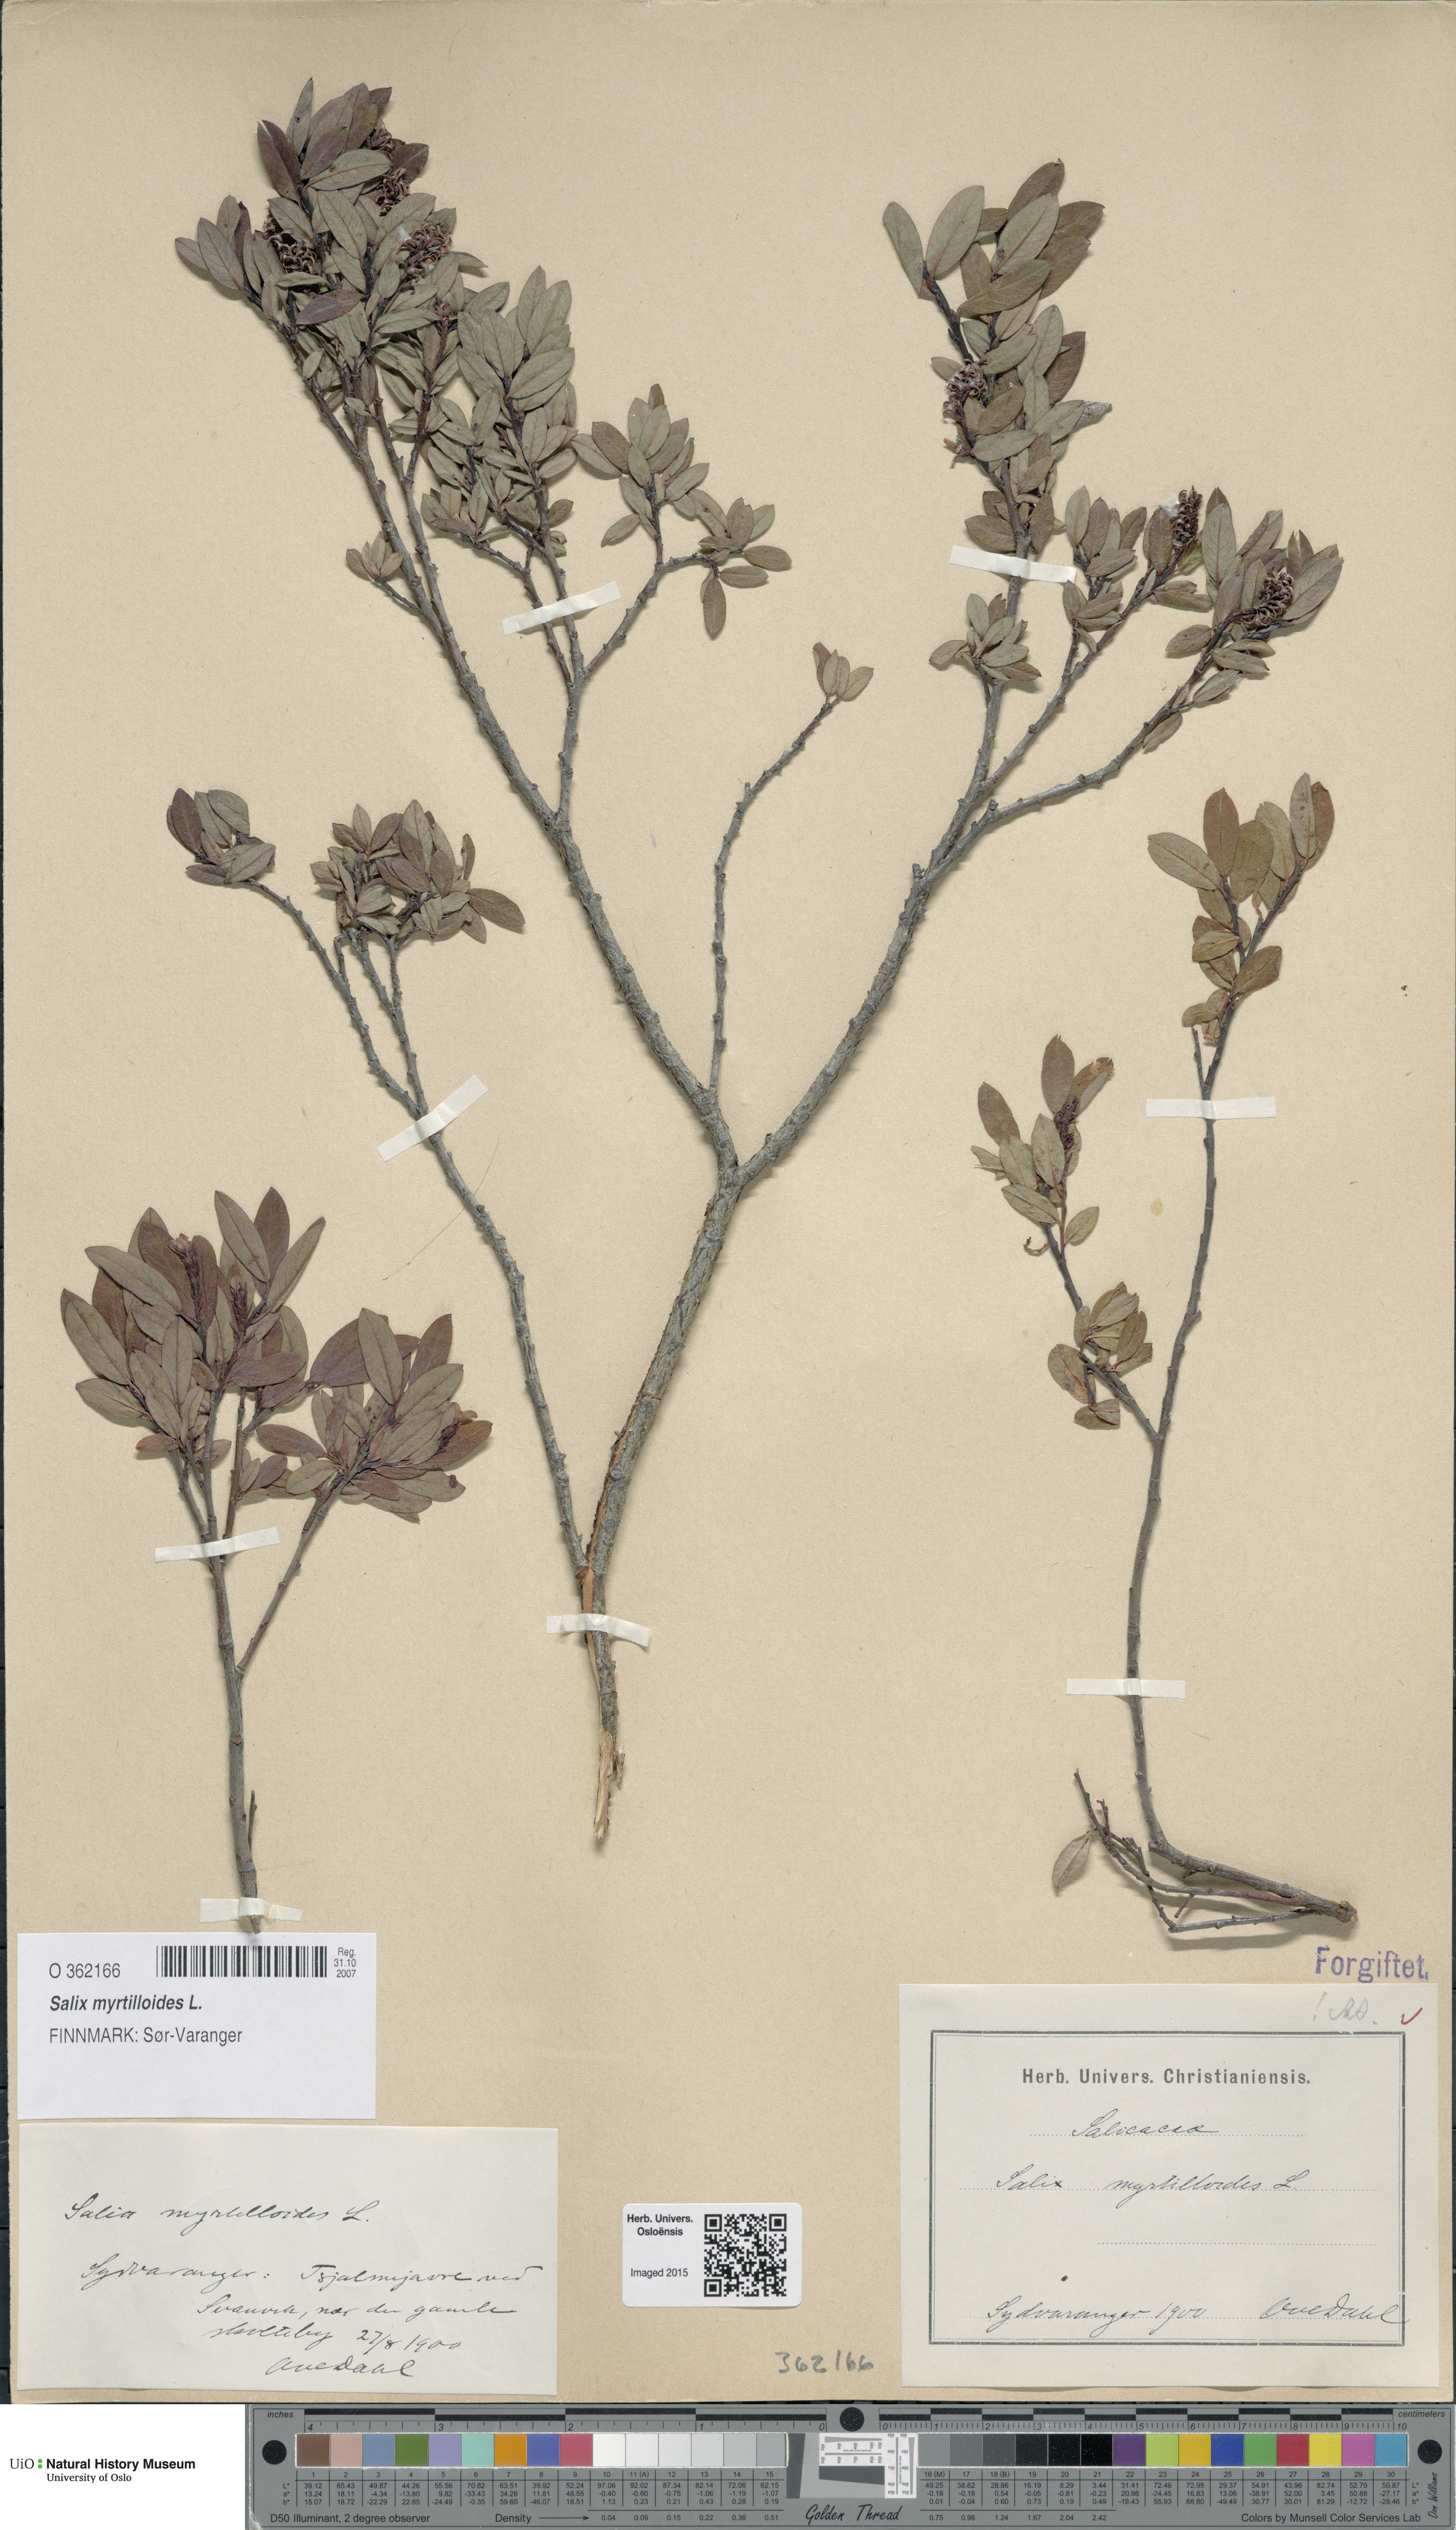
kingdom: Plantae
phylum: Tracheophyta
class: Magnoliopsida
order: Malpighiales
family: Salicaceae
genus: Salix
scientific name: Salix myrtilloides
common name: Myrtle-leaved willow
